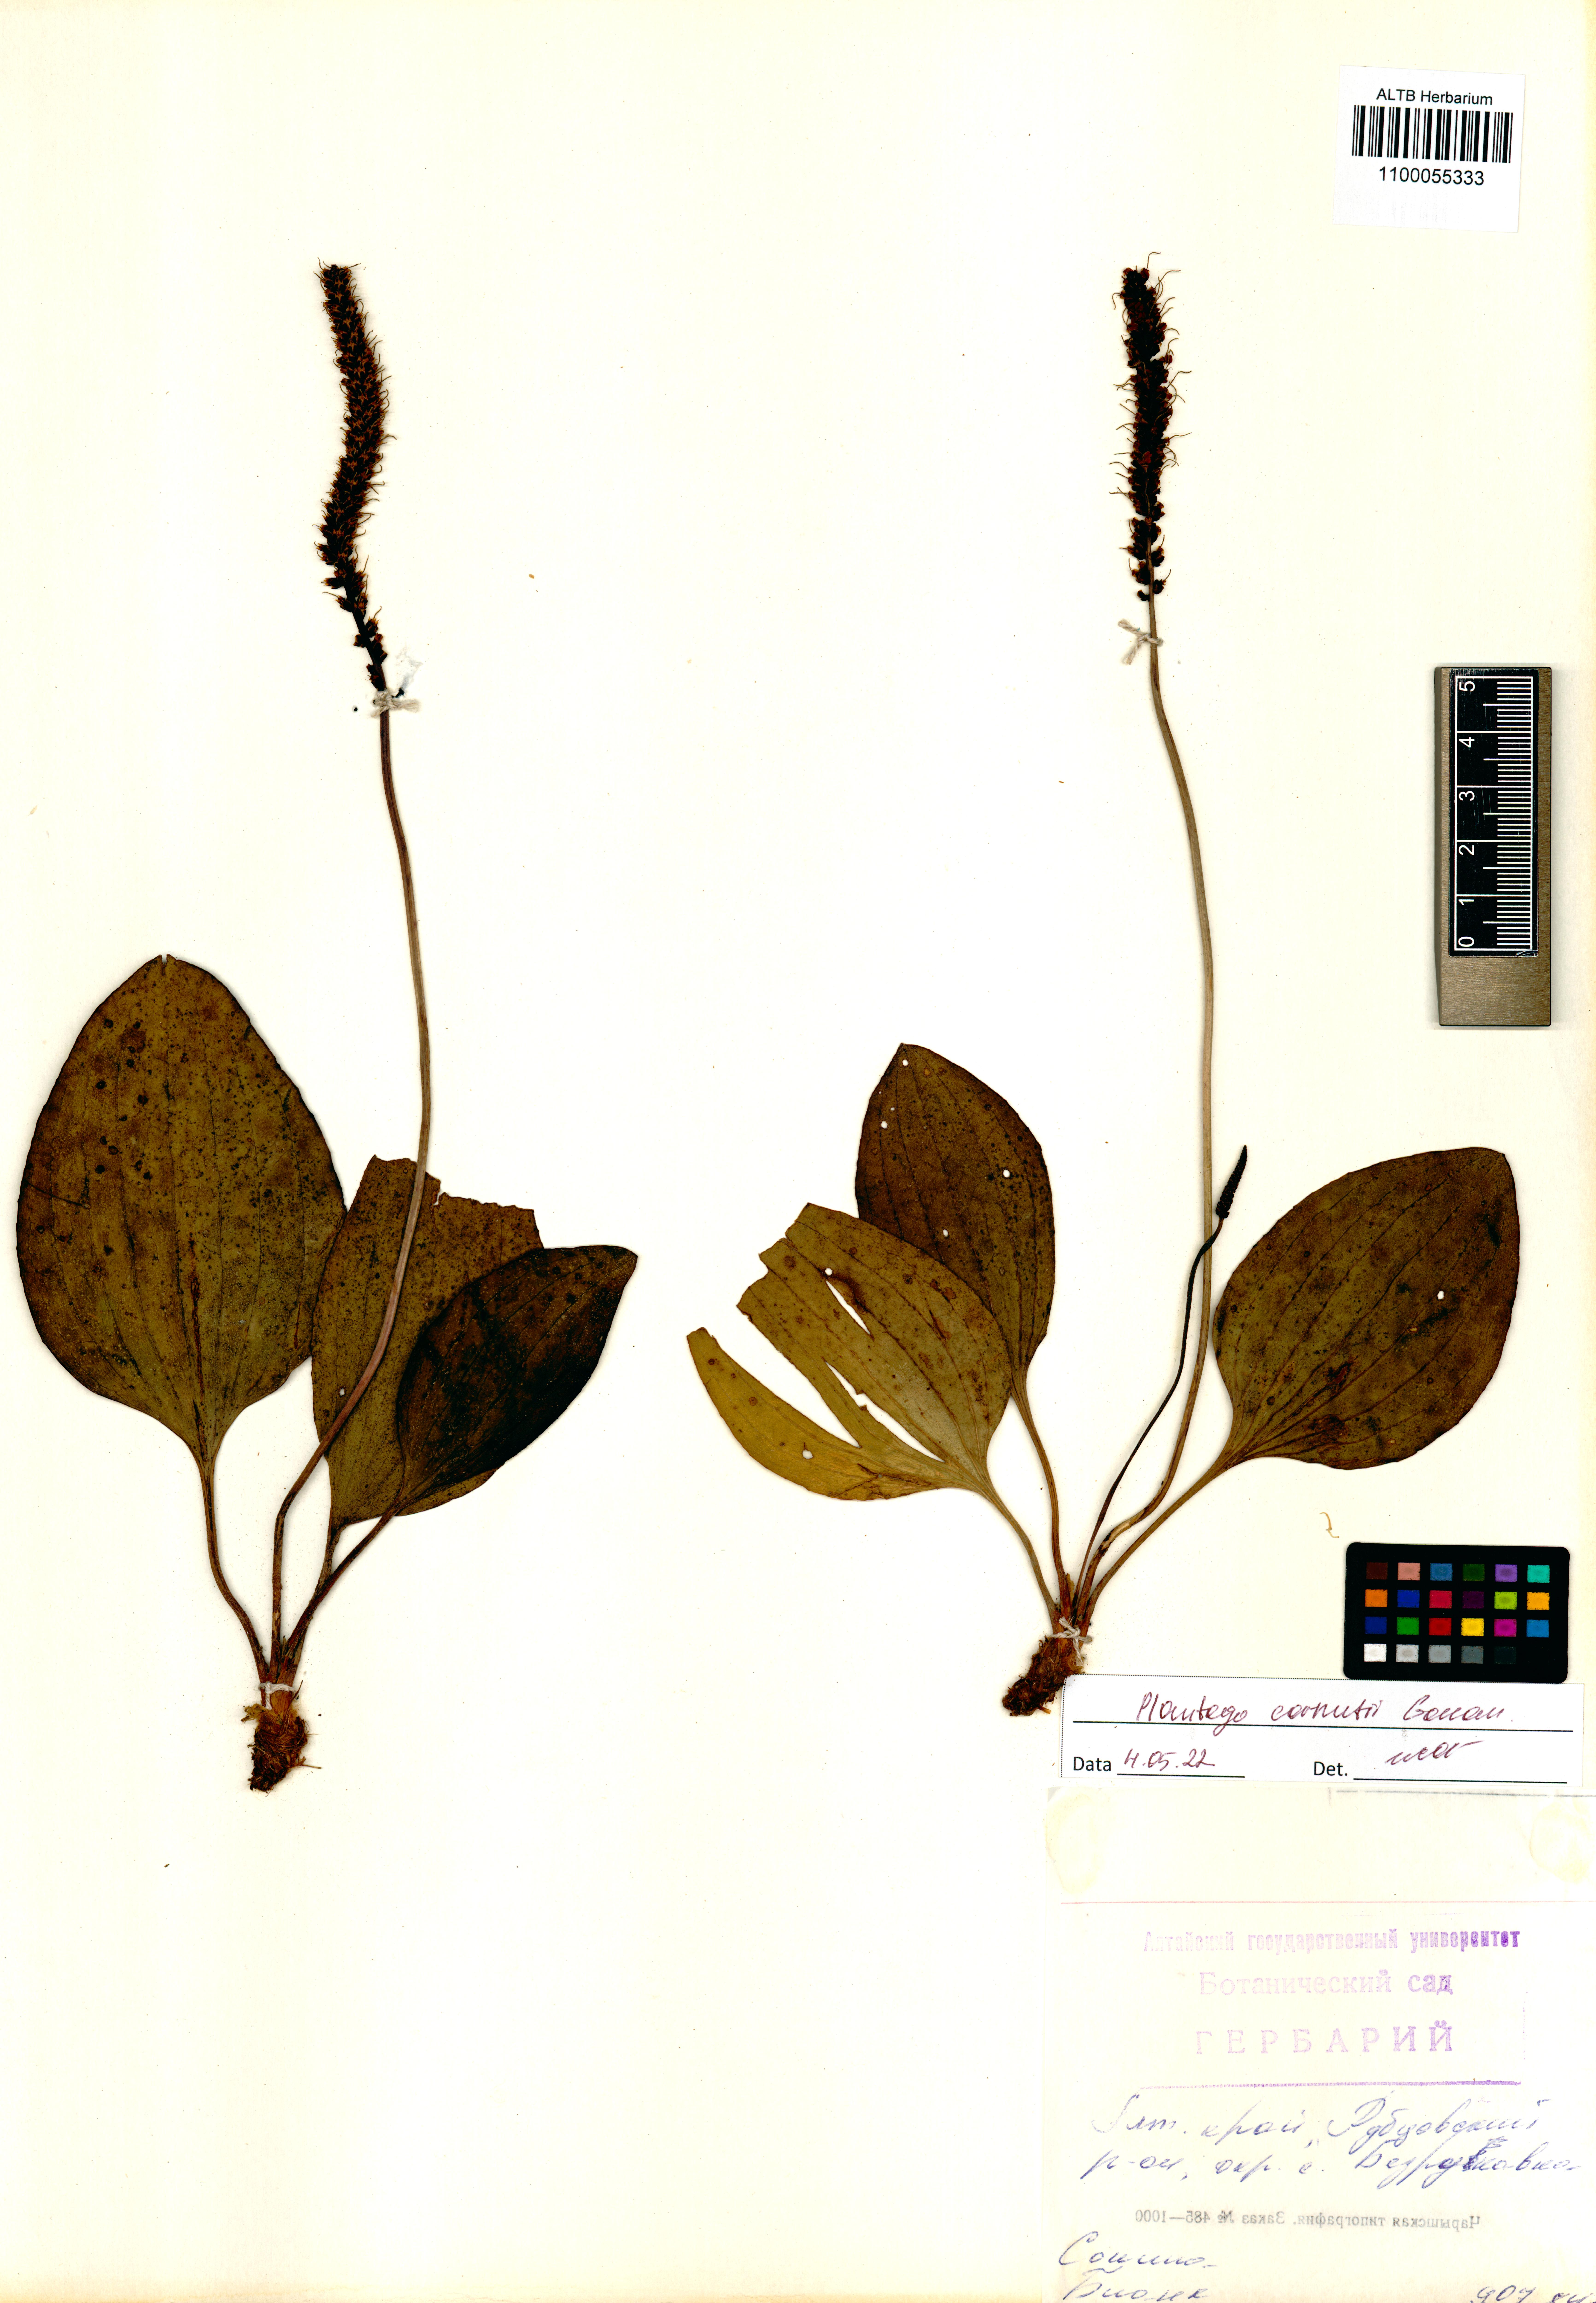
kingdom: Plantae
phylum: Tracheophyta
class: Magnoliopsida
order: Lamiales
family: Plantaginaceae
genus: Plantago
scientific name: Plantago cornuti
